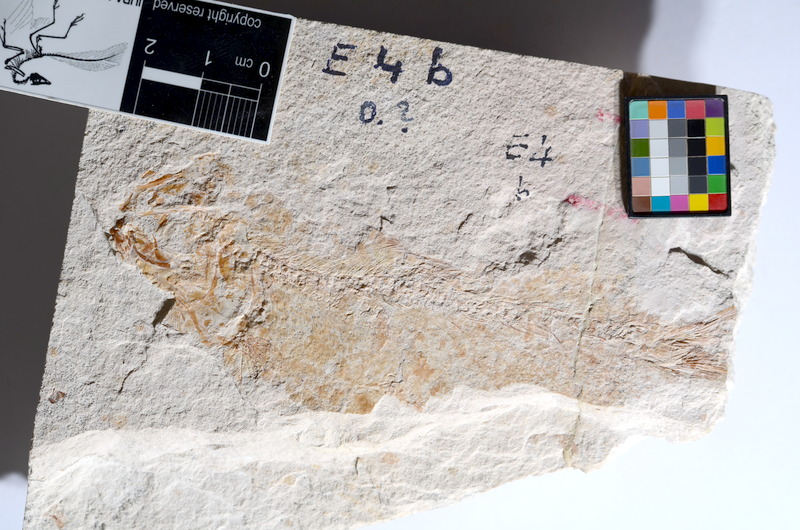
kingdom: Animalia
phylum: Chordata
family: Ascalaboidae
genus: Tharsis
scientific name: Tharsis dubius
